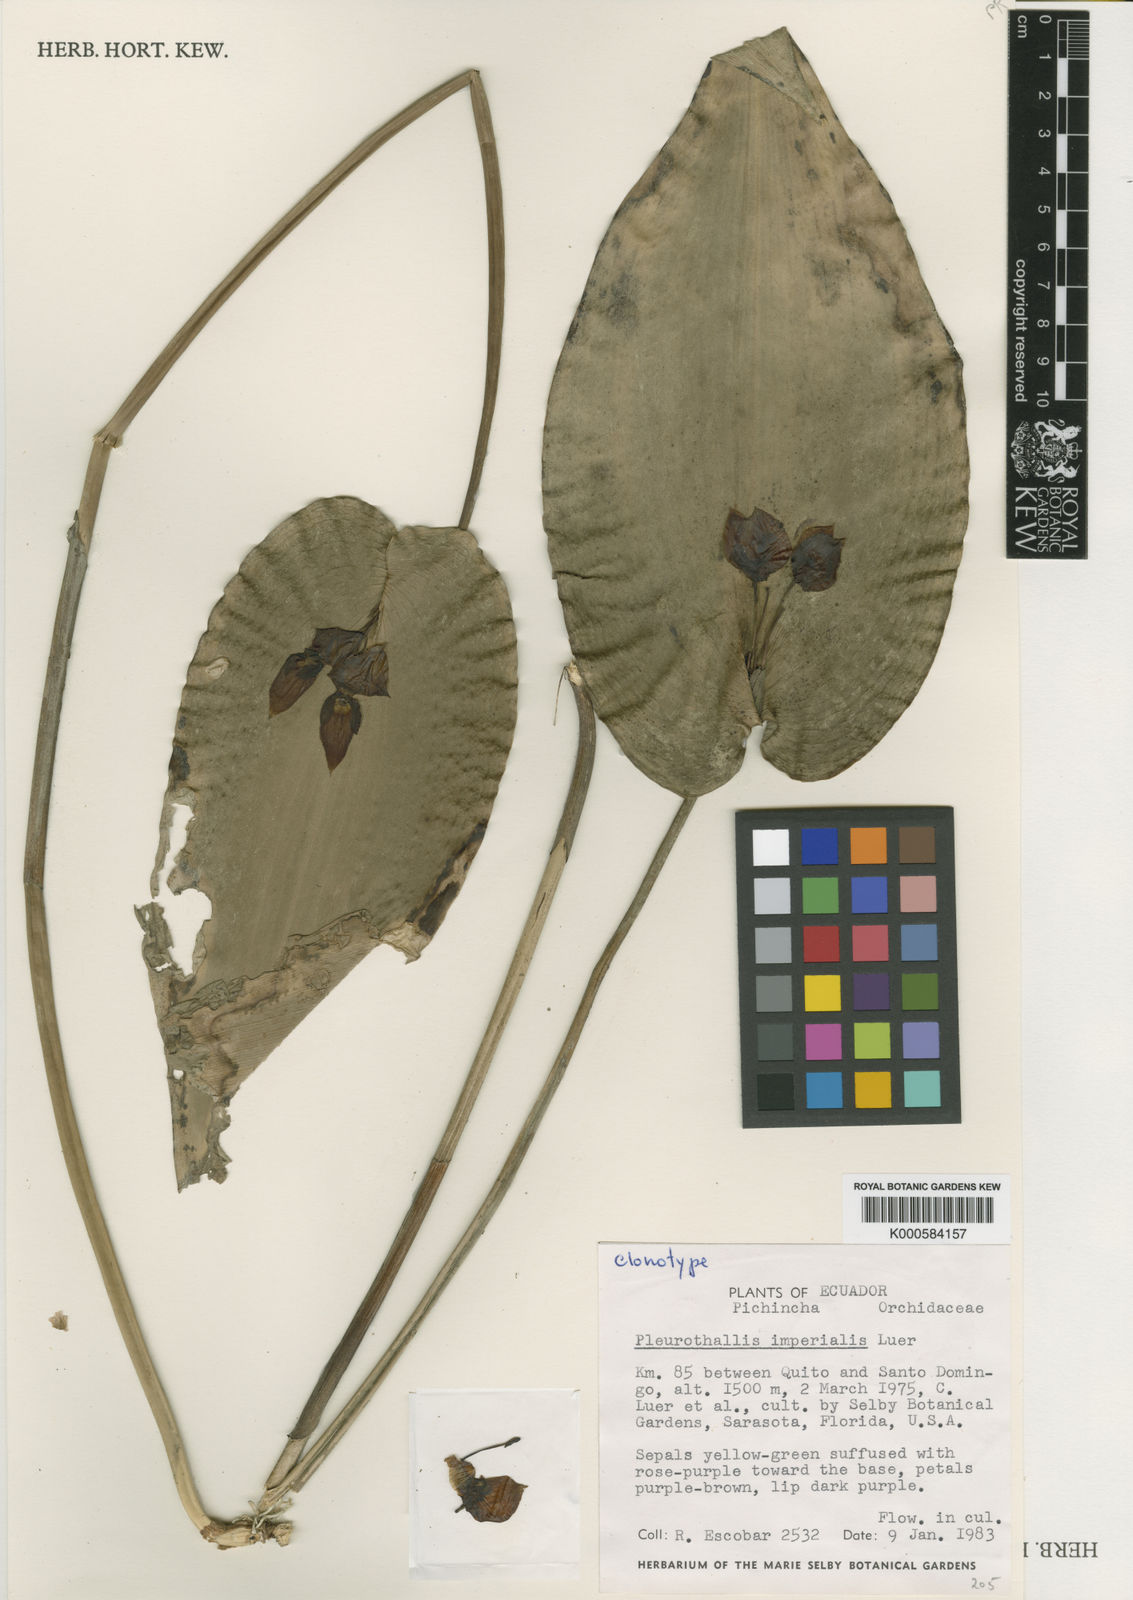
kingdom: Plantae
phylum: Tracheophyta
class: Liliopsida
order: Asparagales
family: Orchidaceae
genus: Pleurothallis
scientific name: Pleurothallis imperialis
